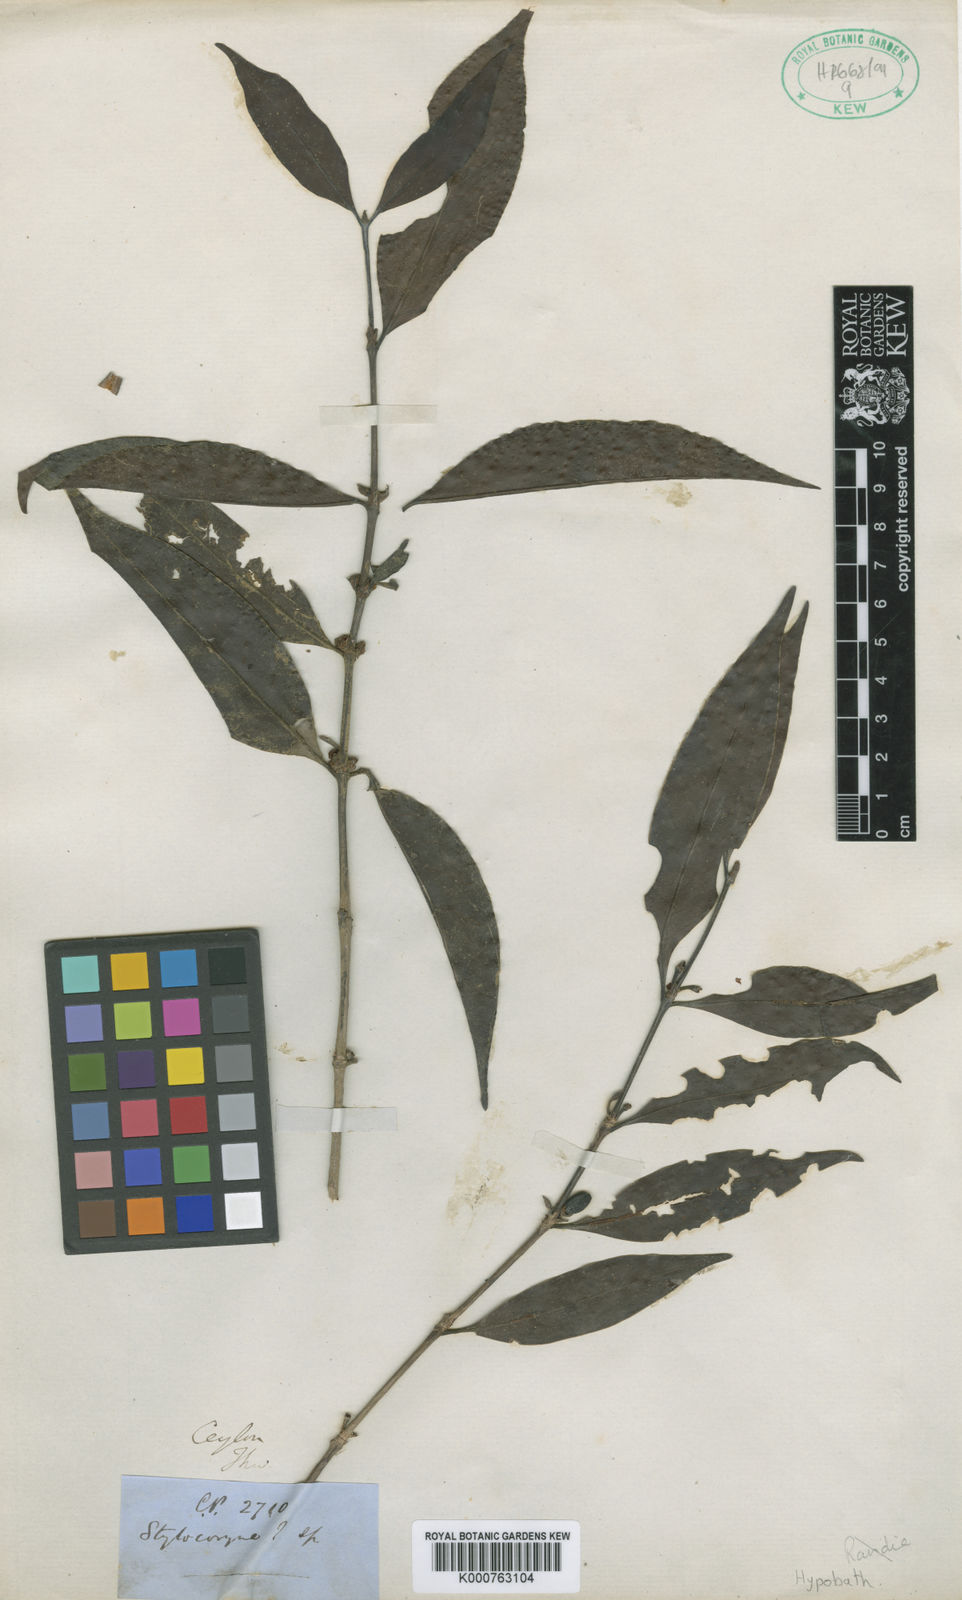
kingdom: Plantae
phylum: Tracheophyta
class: Magnoliopsida
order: Gentianales
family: Rubiaceae
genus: Scyphostachys
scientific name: Scyphostachys coffeoides
